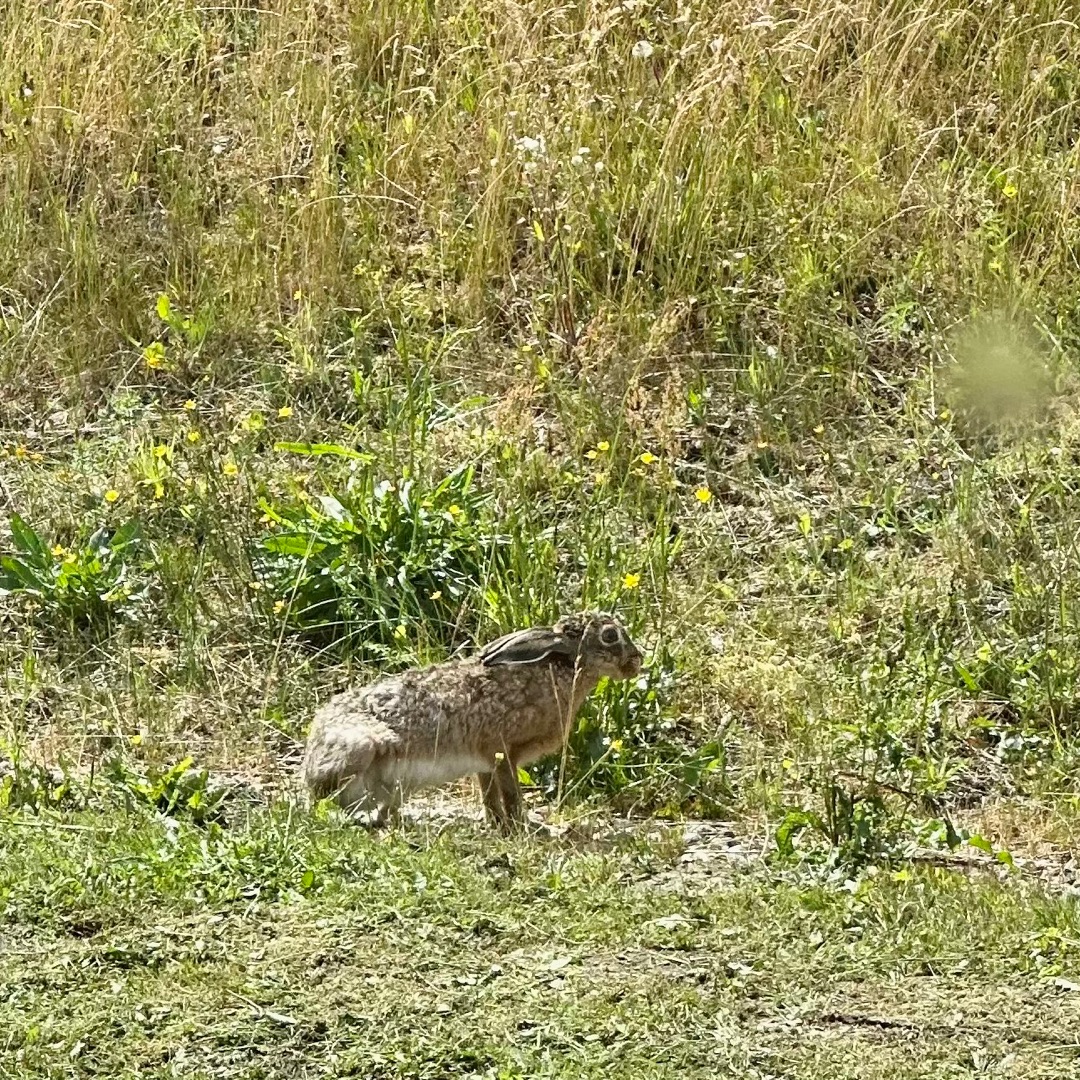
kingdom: Animalia
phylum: Chordata
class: Mammalia
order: Lagomorpha
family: Leporidae
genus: Lepus
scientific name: Lepus europaeus
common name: Hare
